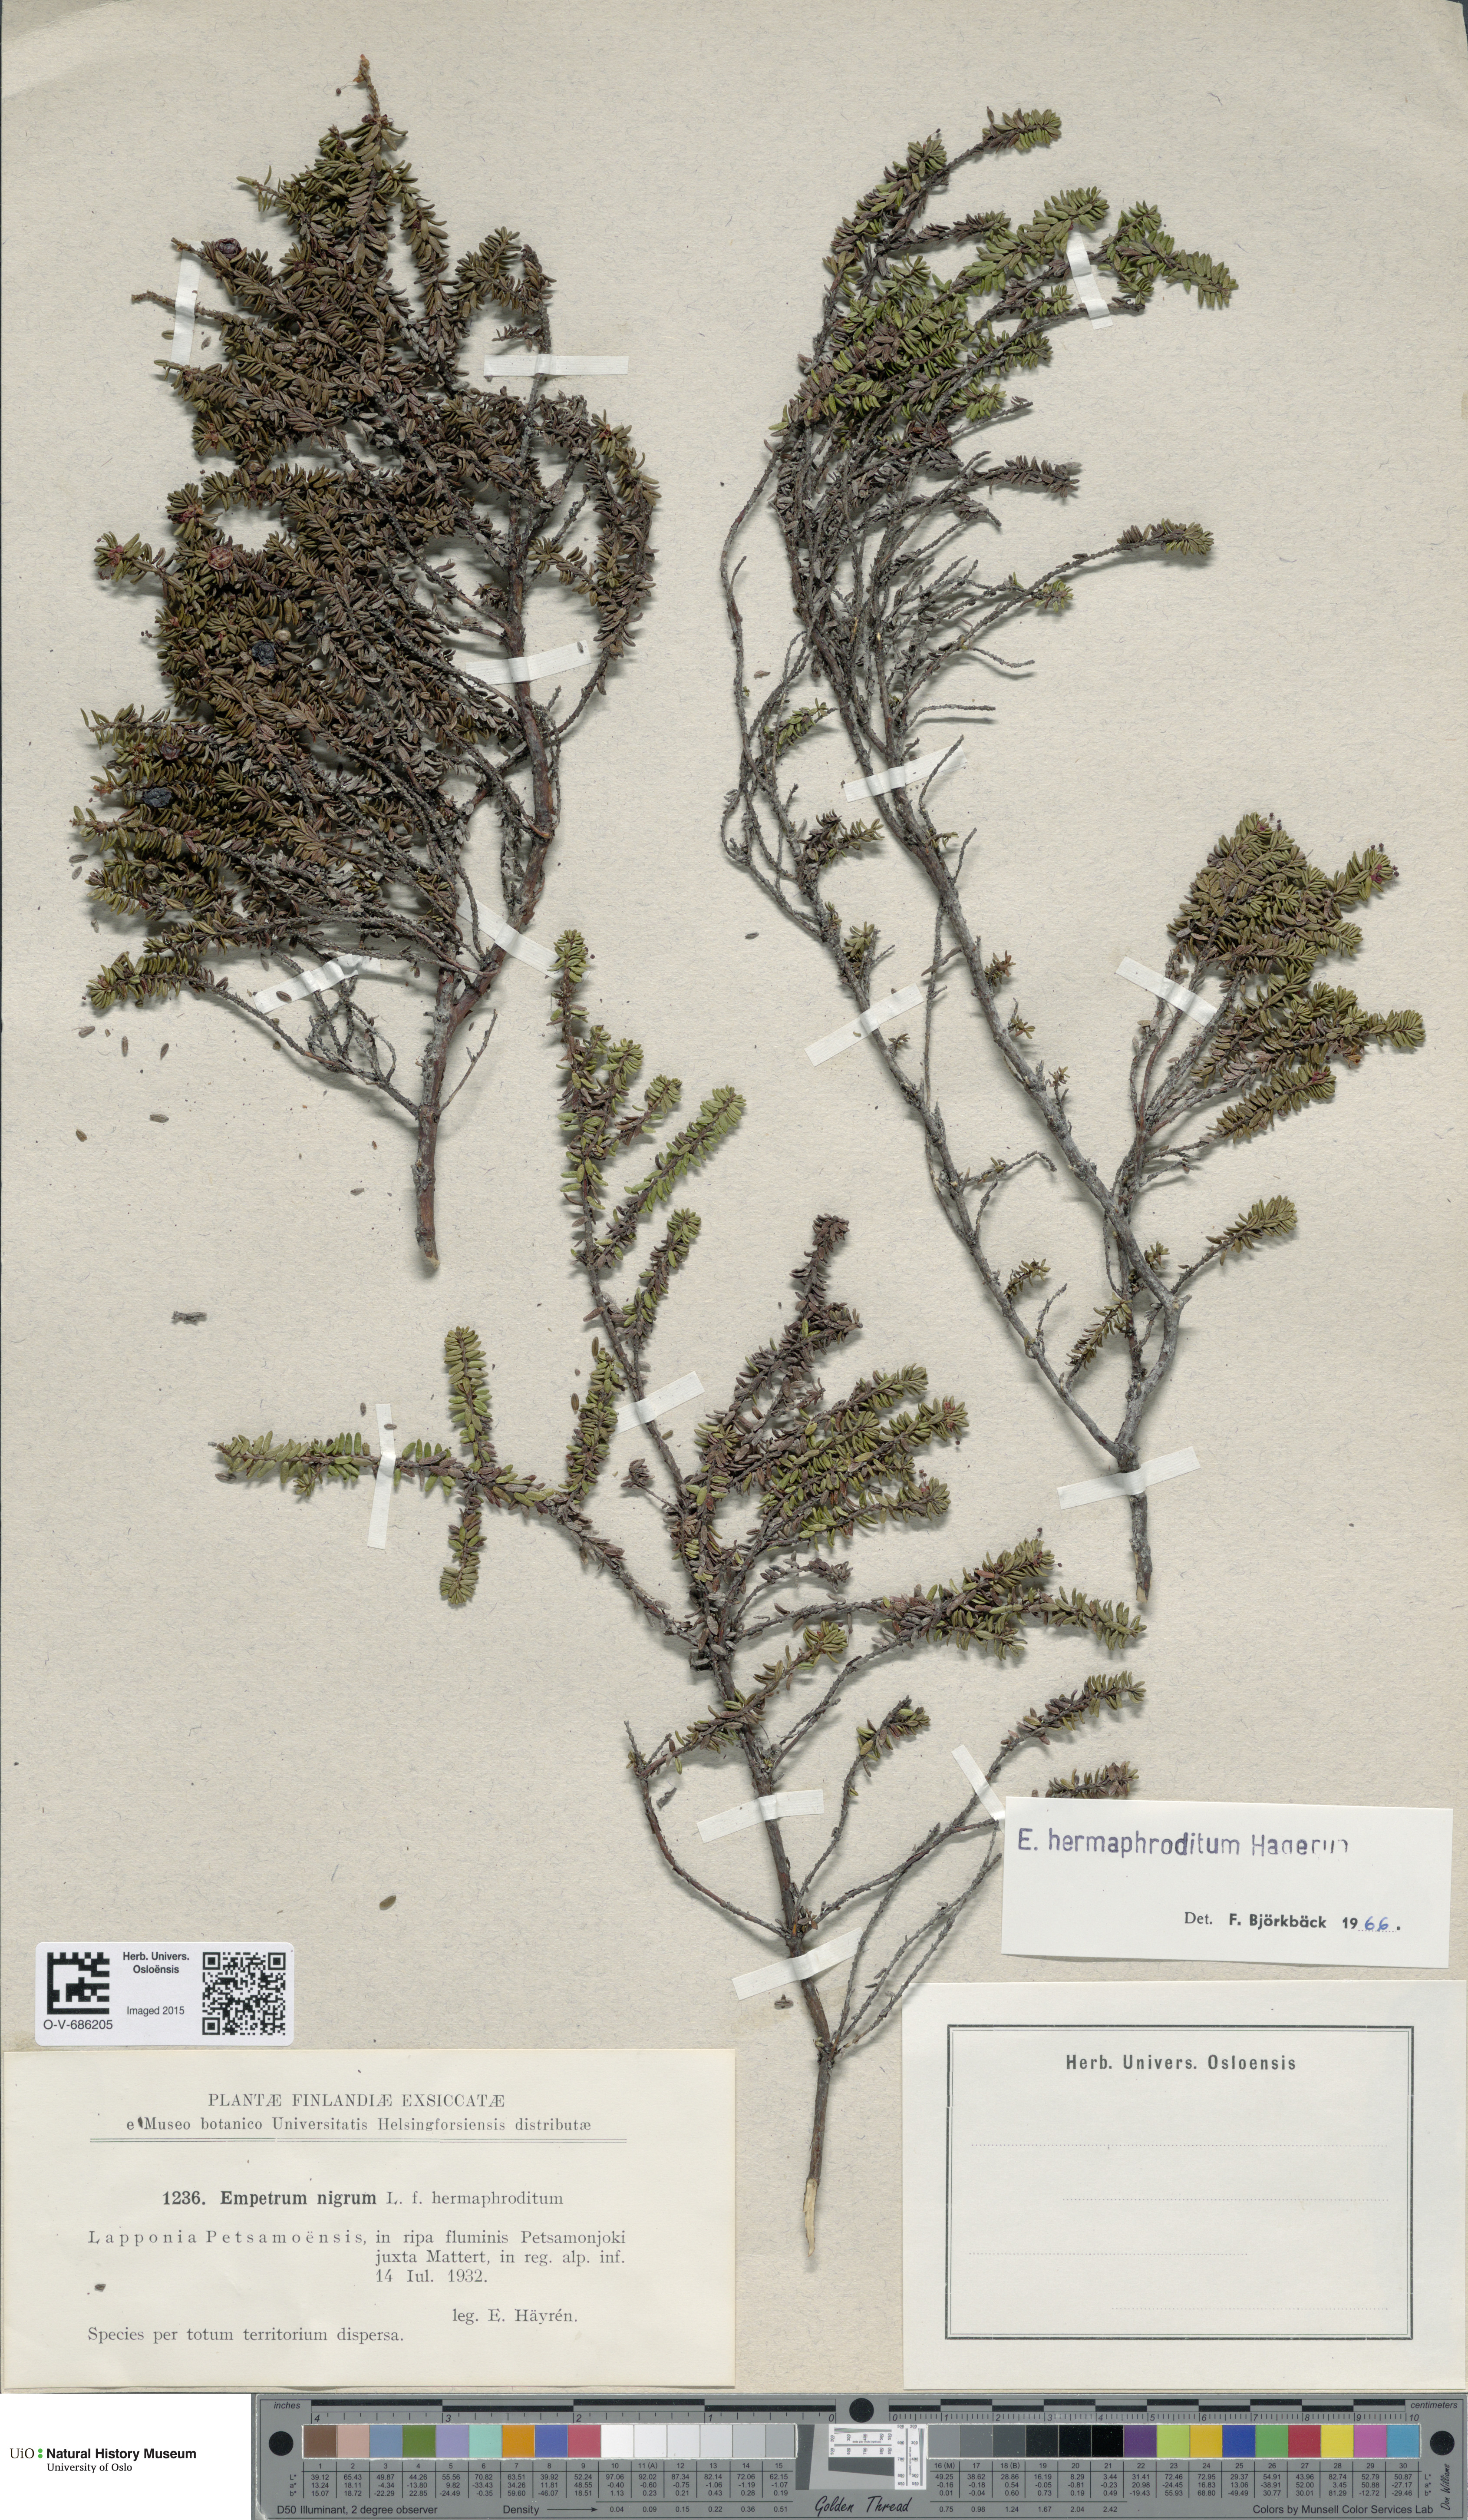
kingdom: Plantae
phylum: Tracheophyta
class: Magnoliopsida
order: Ericales
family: Ericaceae
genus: Empetrum
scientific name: Empetrum hermaphroditum
